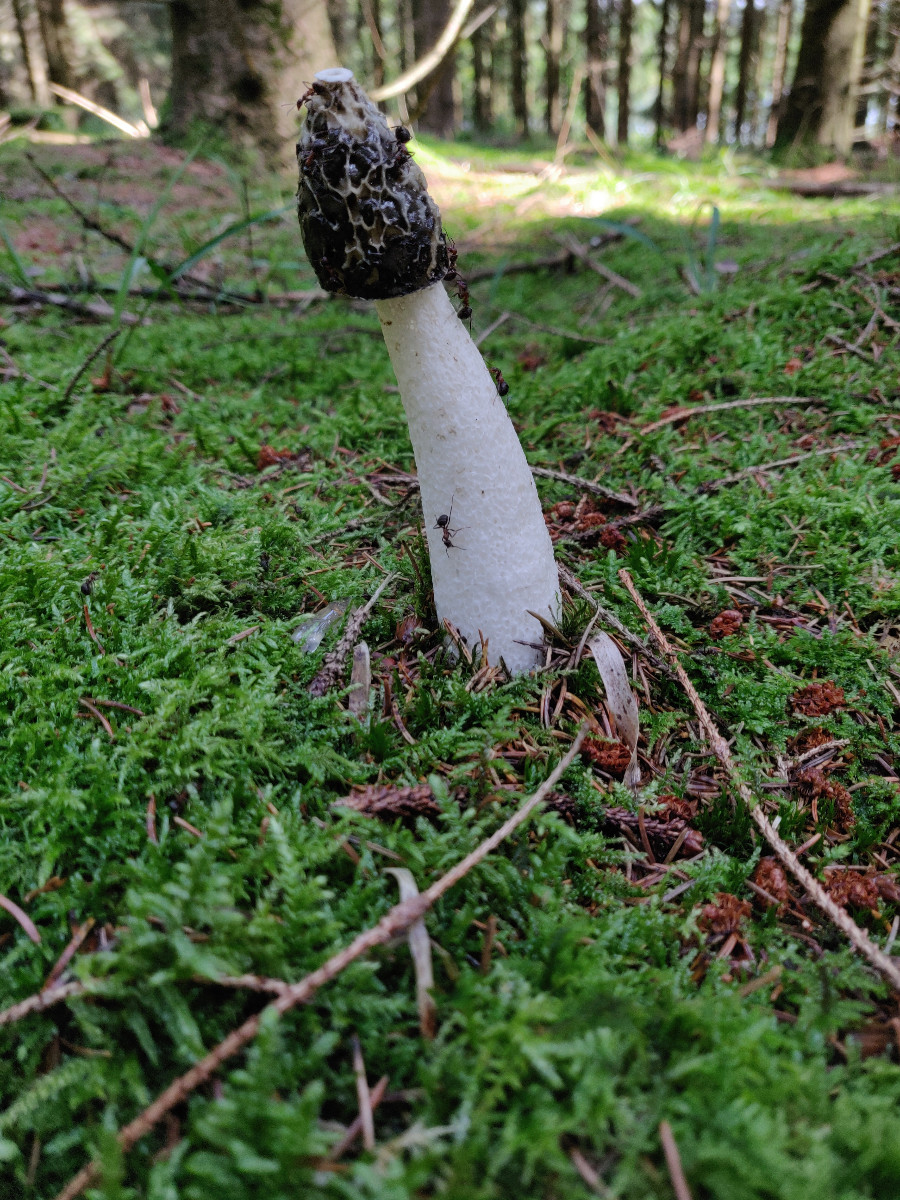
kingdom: Fungi
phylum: Basidiomycota
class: Agaricomycetes
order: Phallales
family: Phallaceae
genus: Phallus
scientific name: Phallus impudicus
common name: almindelig stinksvamp
